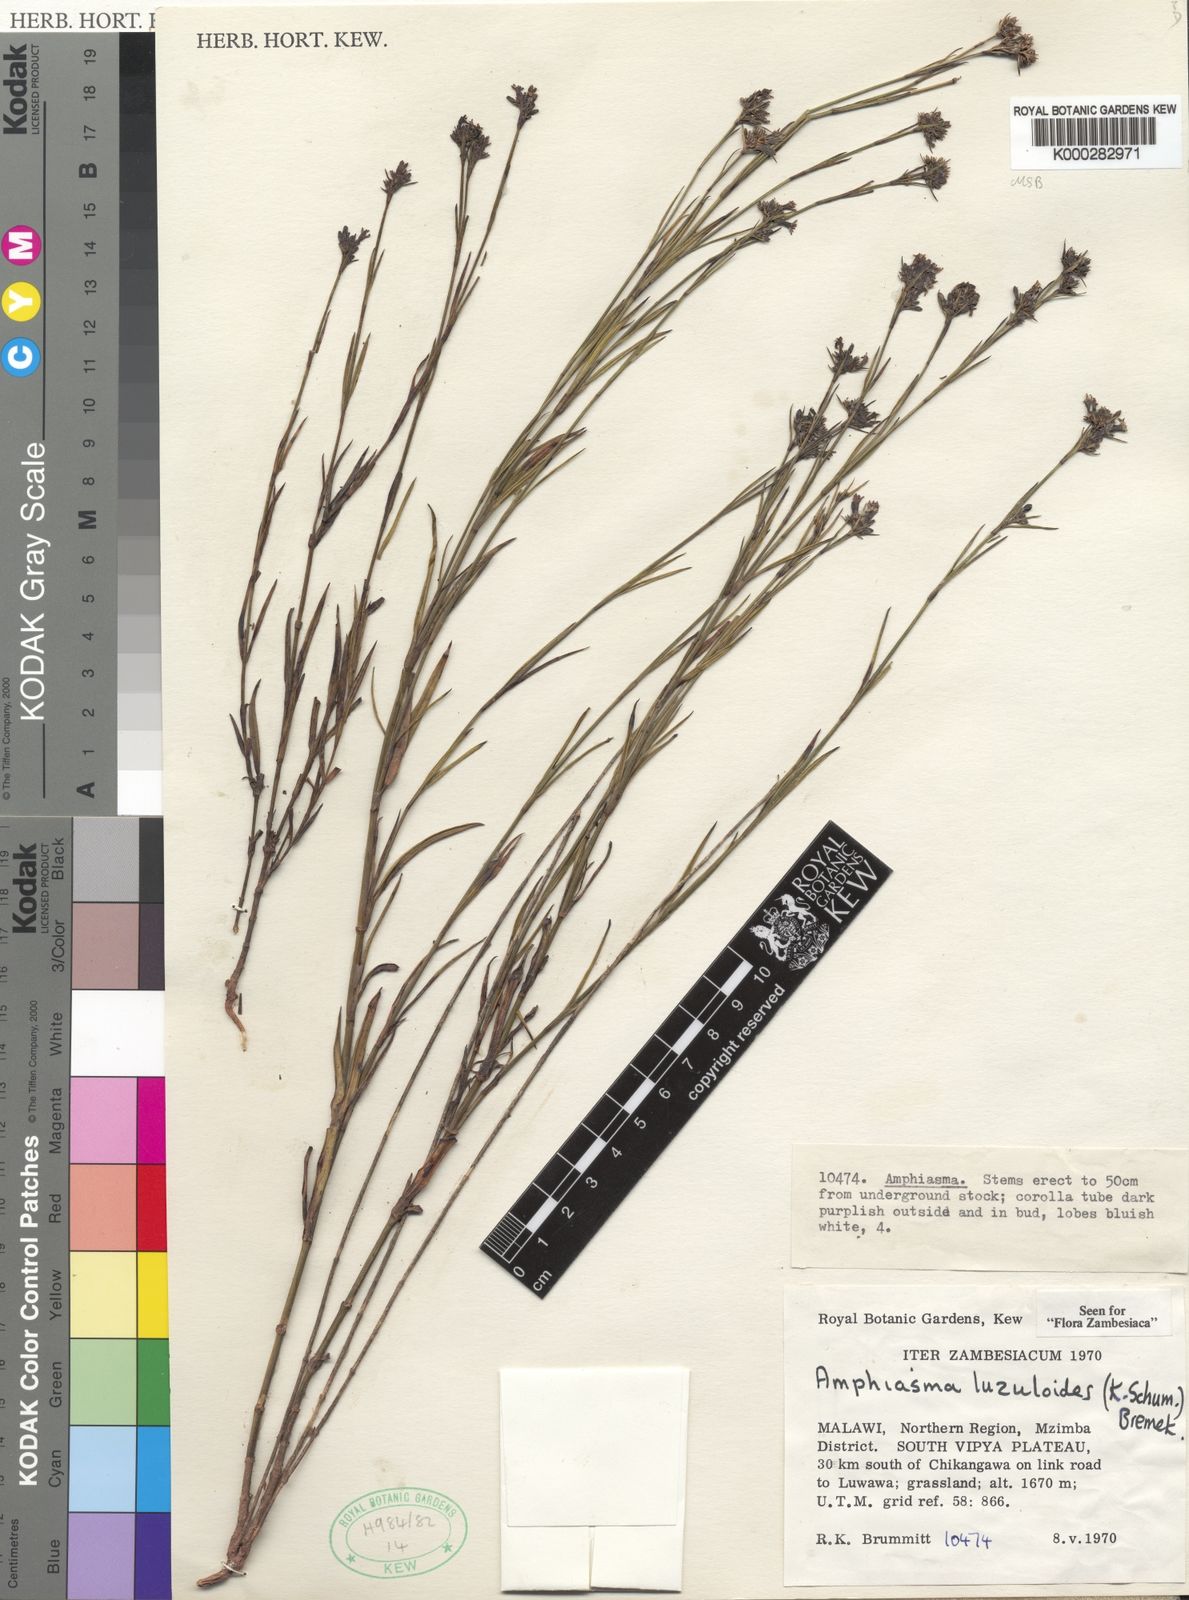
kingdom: Plantae
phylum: Tracheophyta
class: Magnoliopsida
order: Gentianales
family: Rubiaceae
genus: Amphiasma
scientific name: Amphiasma luzuloides
